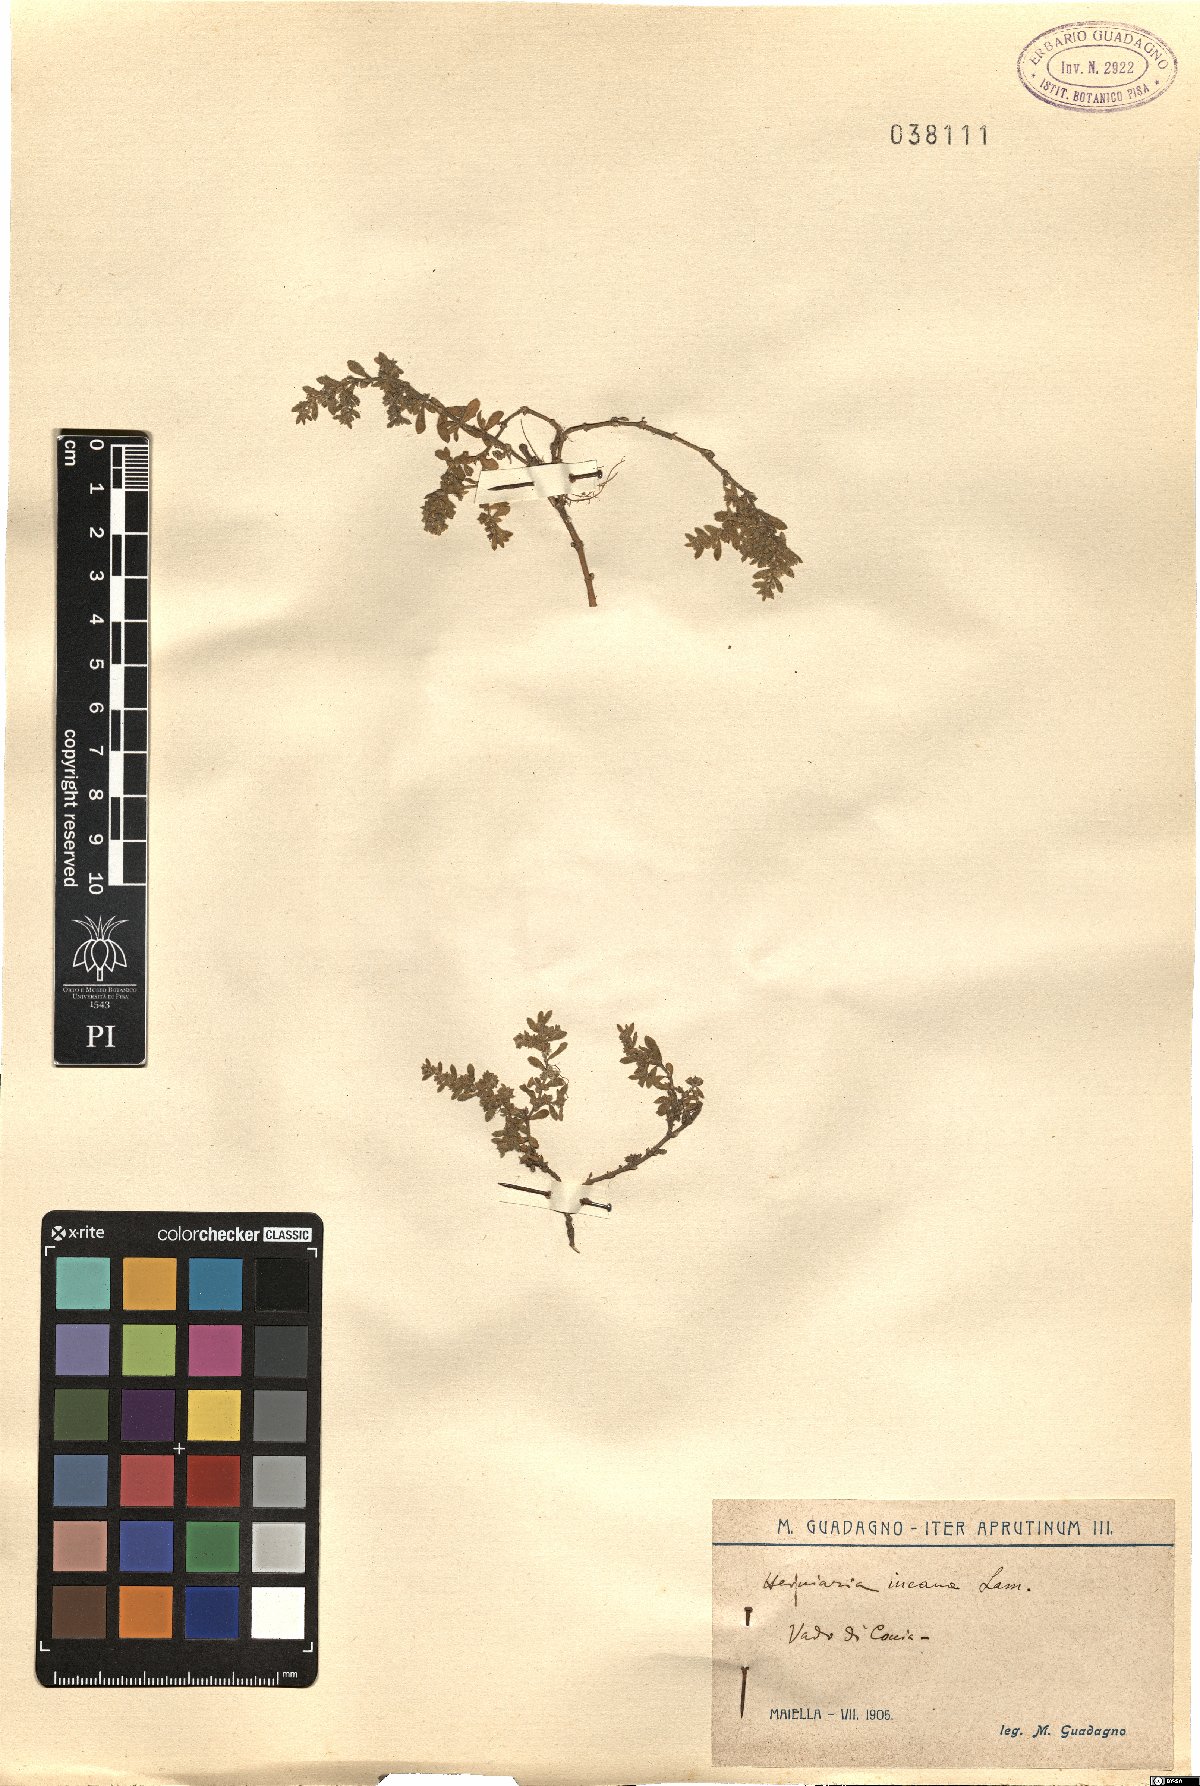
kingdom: Plantae
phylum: Tracheophyta
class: Magnoliopsida
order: Caryophyllales
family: Caryophyllaceae
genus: Herniaria
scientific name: Herniaria incana
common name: Gray rupturewort
